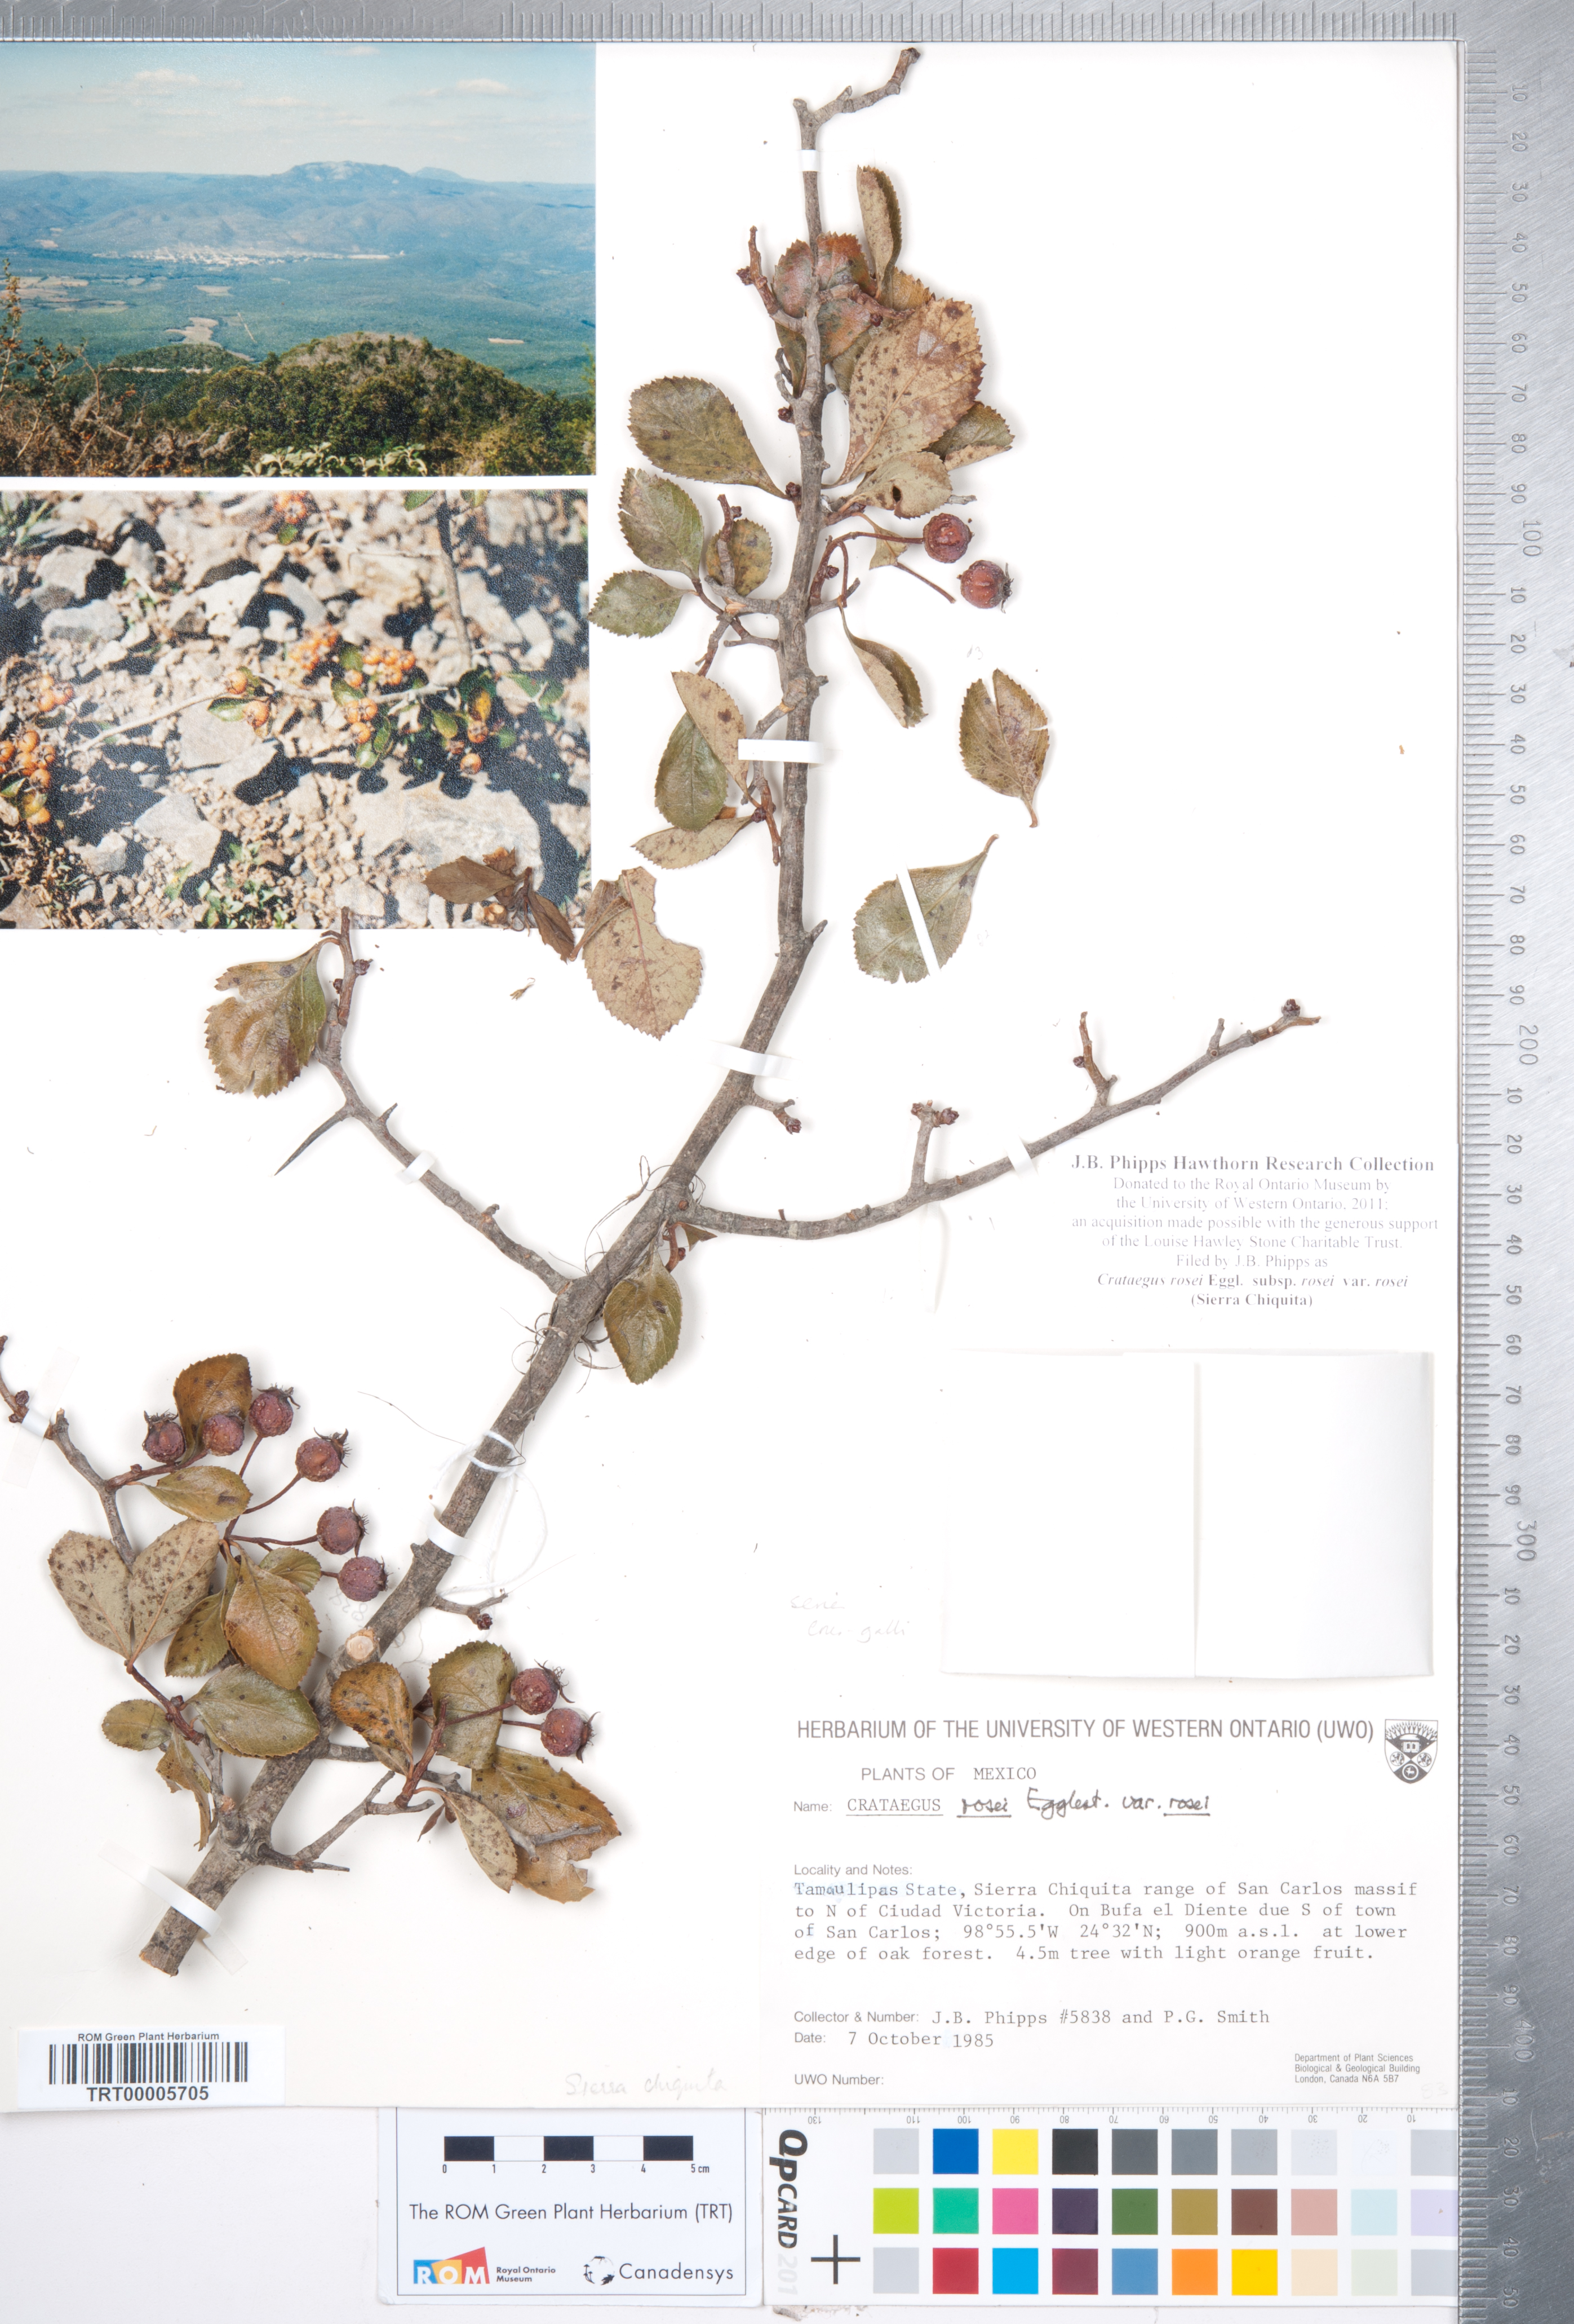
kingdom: Plantae
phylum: Tracheophyta
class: Magnoliopsida
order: Rosales
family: Rosaceae
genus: Crataegus
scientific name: Crataegus rosei
